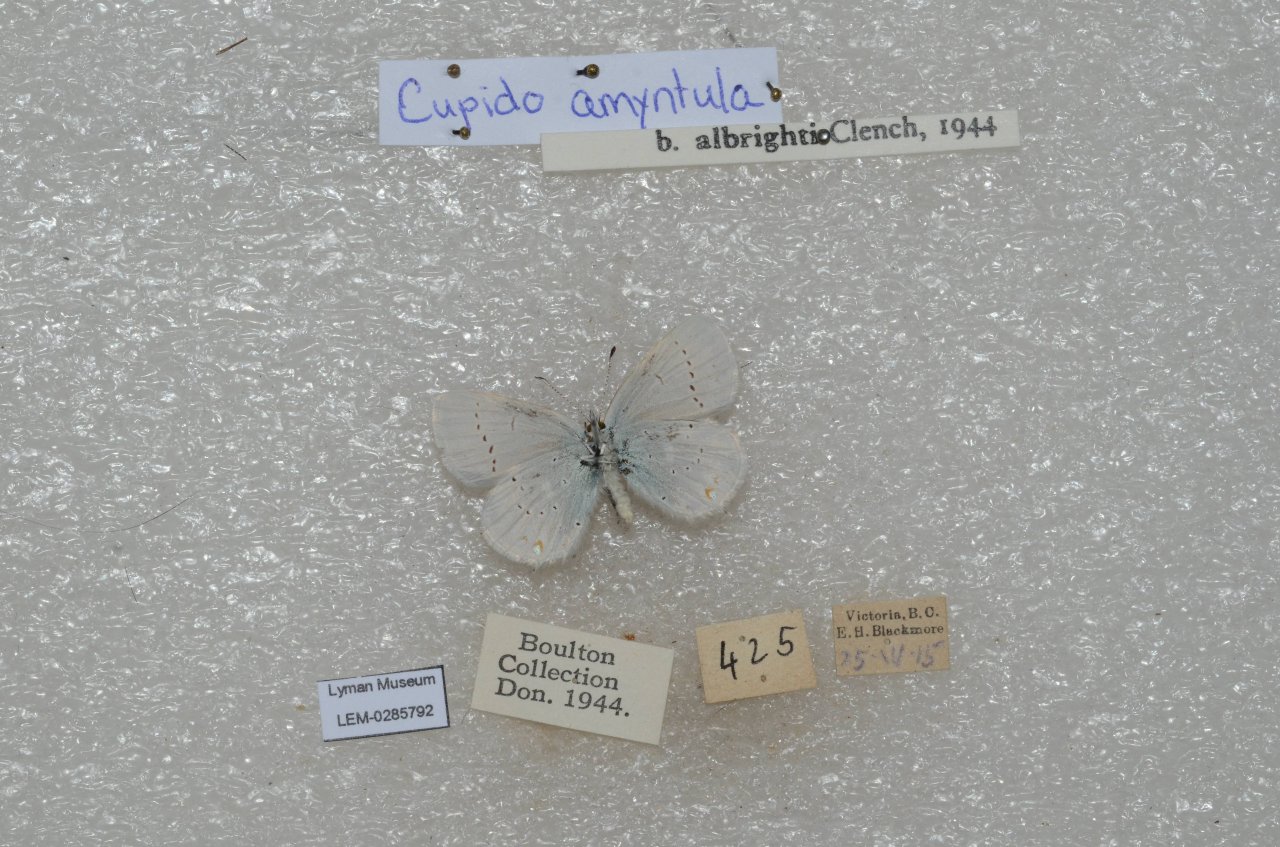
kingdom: Animalia
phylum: Arthropoda
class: Insecta
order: Lepidoptera
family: Lycaenidae
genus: Elkalyce
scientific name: Elkalyce amyntula
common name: Western Tailed-Blue
